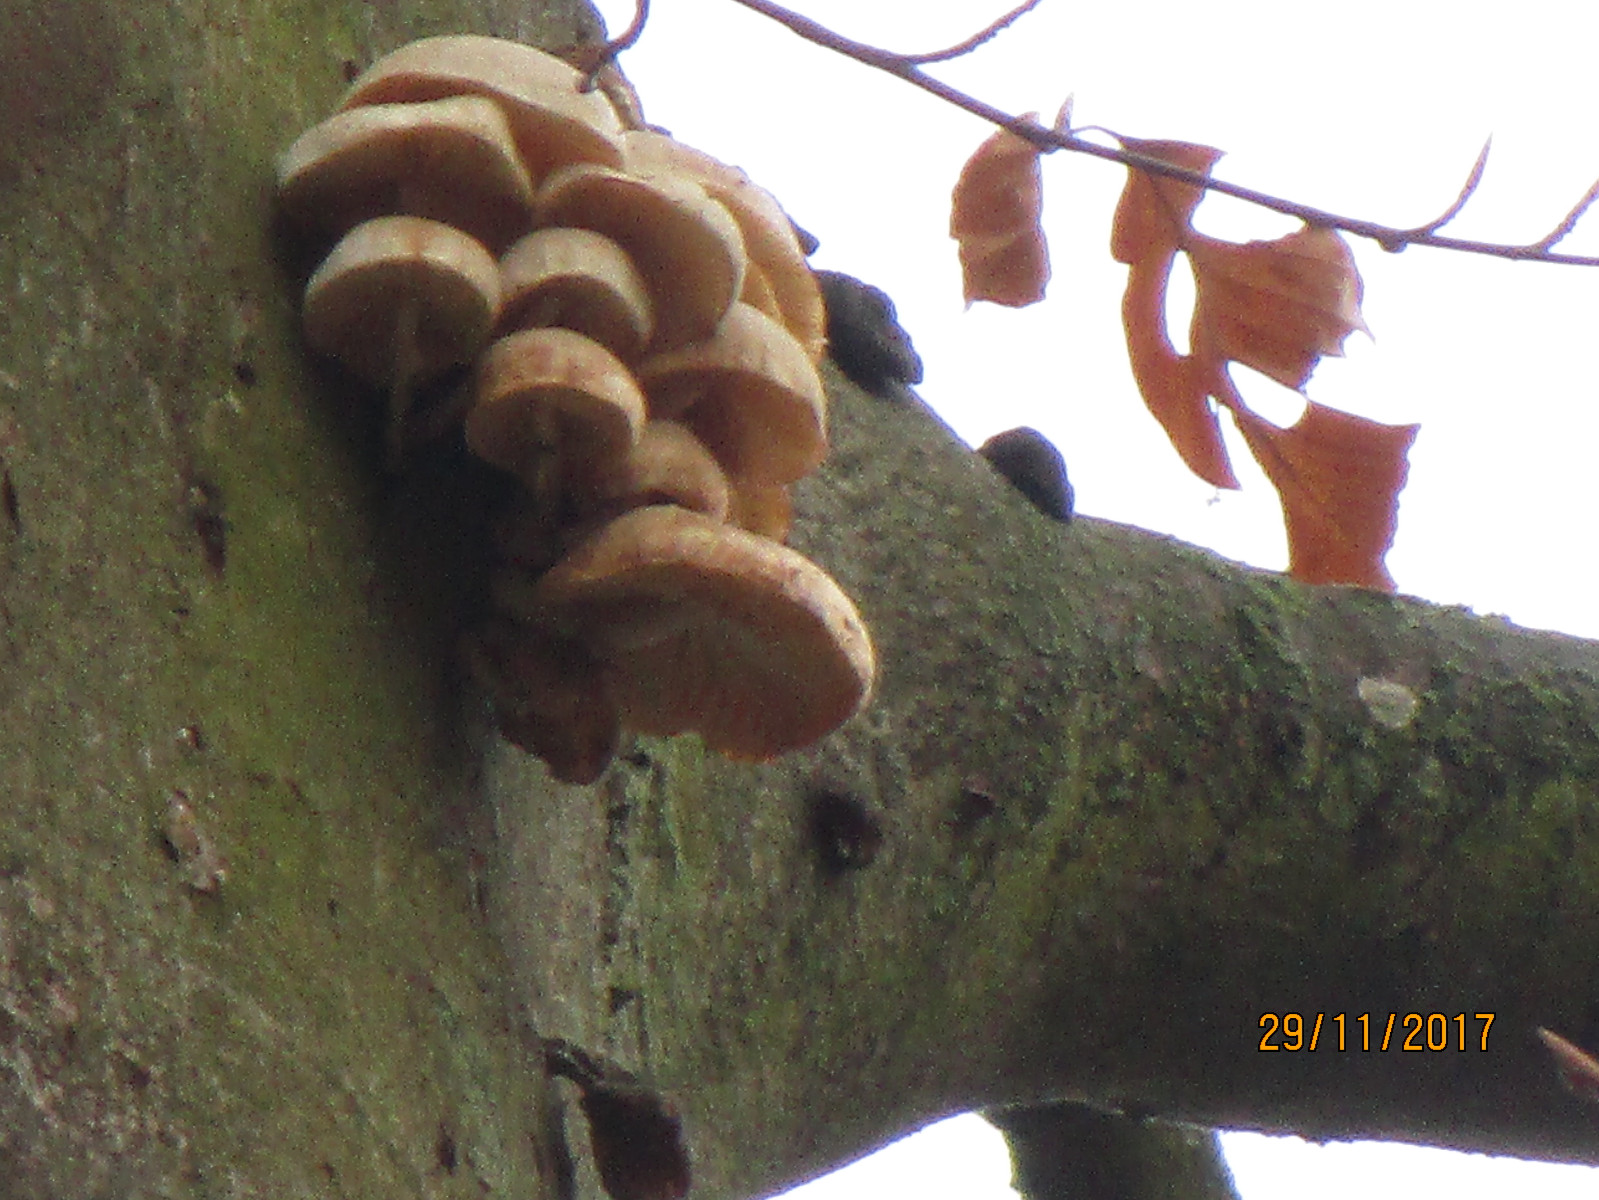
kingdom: Fungi
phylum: Basidiomycota
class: Agaricomycetes
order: Agaricales
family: Physalacriaceae
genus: Mucidula
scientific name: Mucidula mucida
